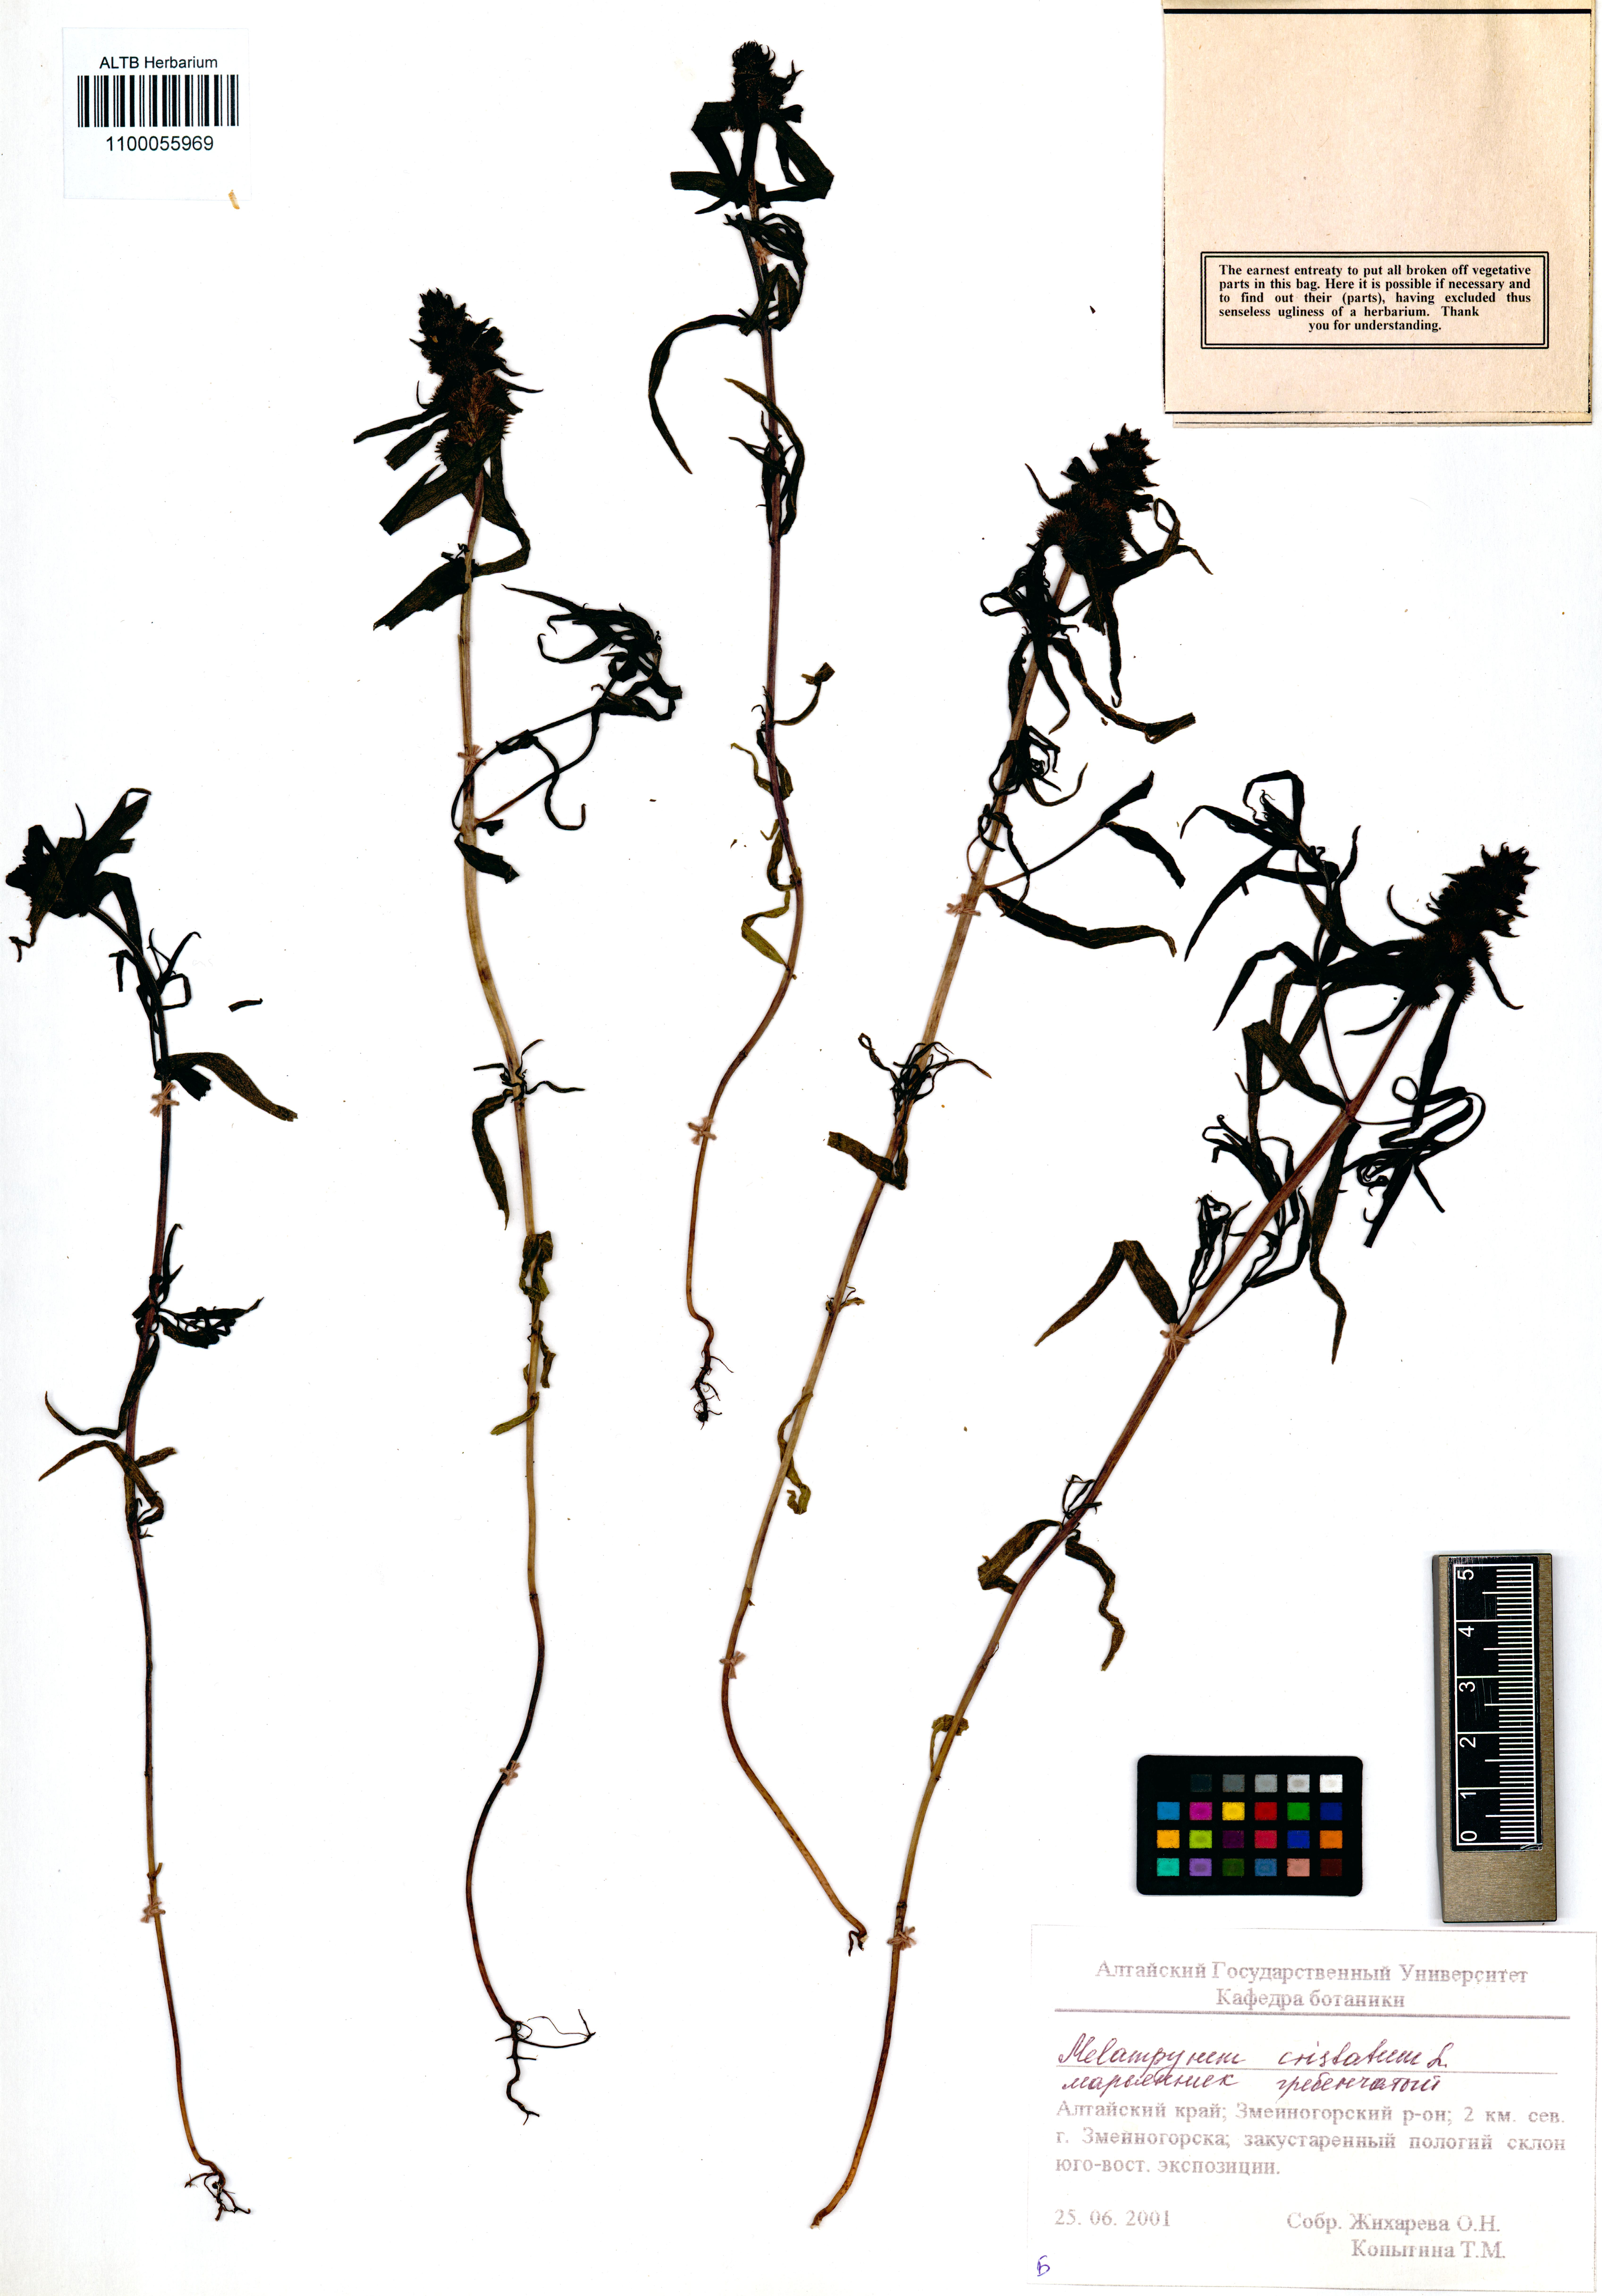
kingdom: Plantae
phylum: Tracheophyta
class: Magnoliopsida
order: Lamiales
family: Orobanchaceae
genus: Melampyrum
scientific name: Melampyrum cristatum
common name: Crested cow-wheat
